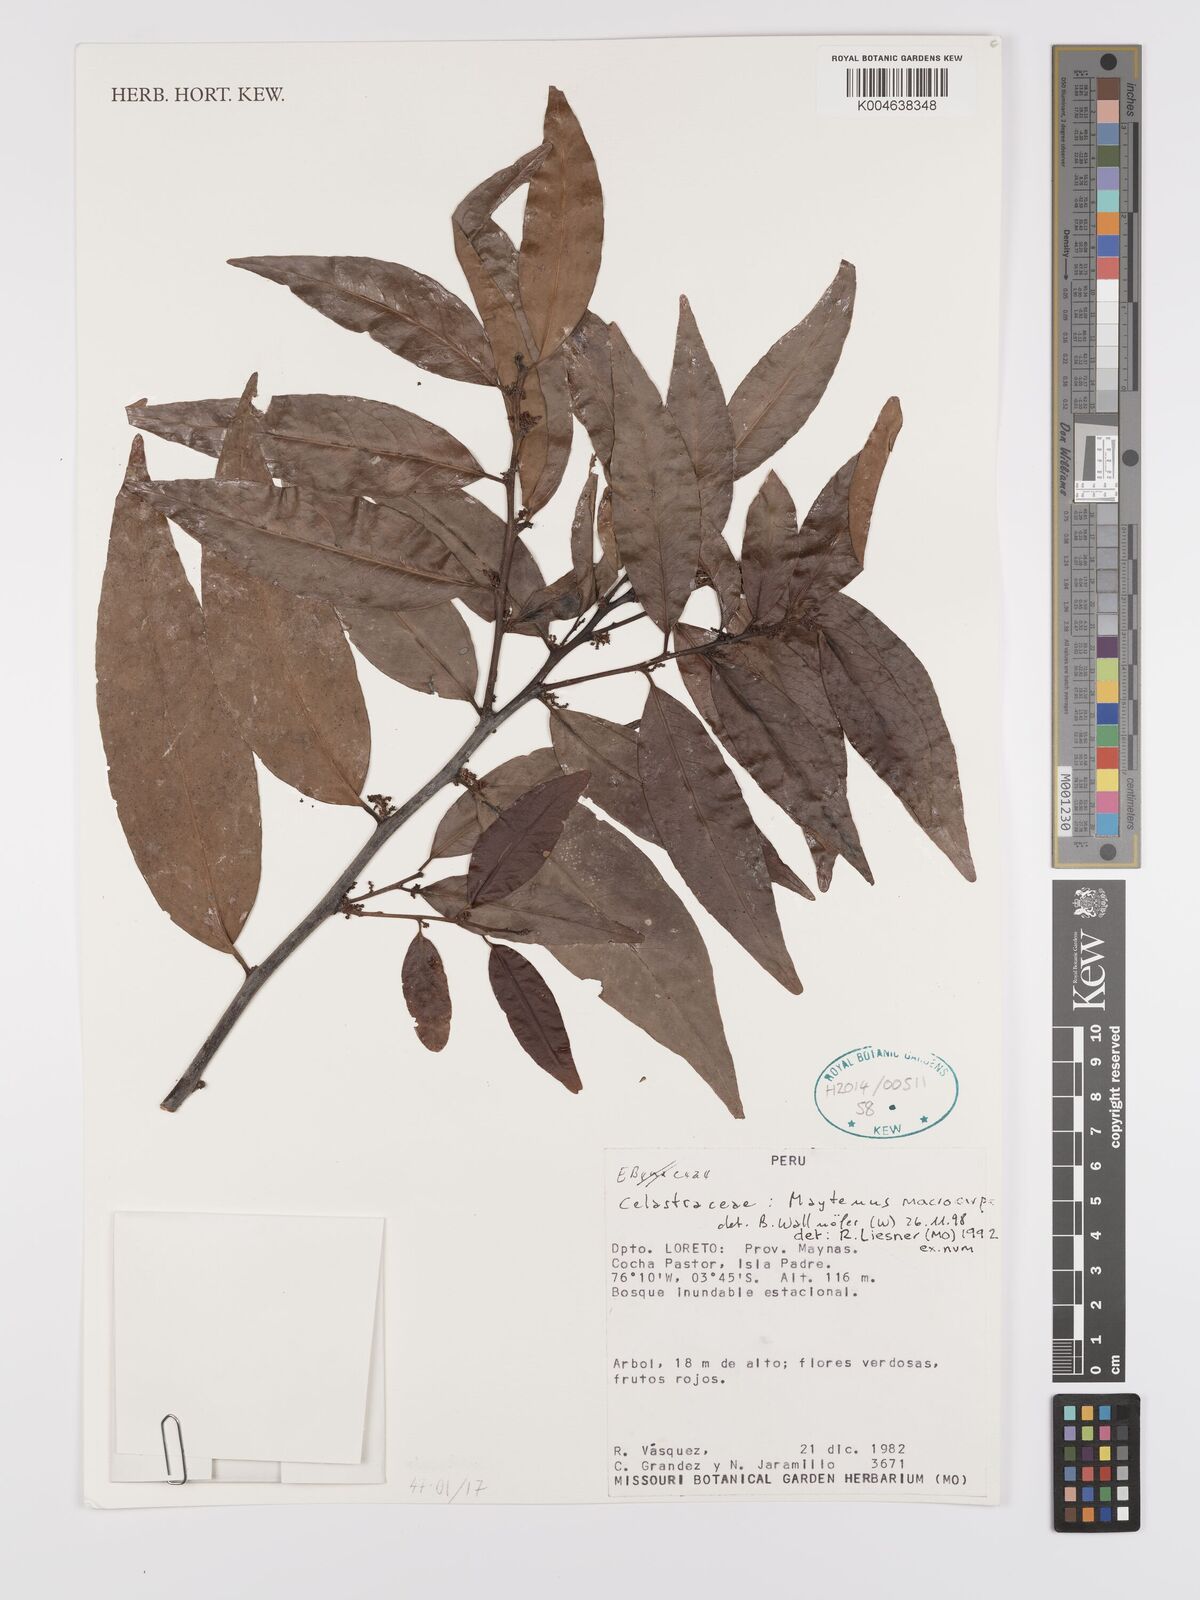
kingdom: Plantae
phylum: Tracheophyta
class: Magnoliopsida
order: Celastrales
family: Celastraceae
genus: Monteverdia
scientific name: Monteverdia macrocarpa
